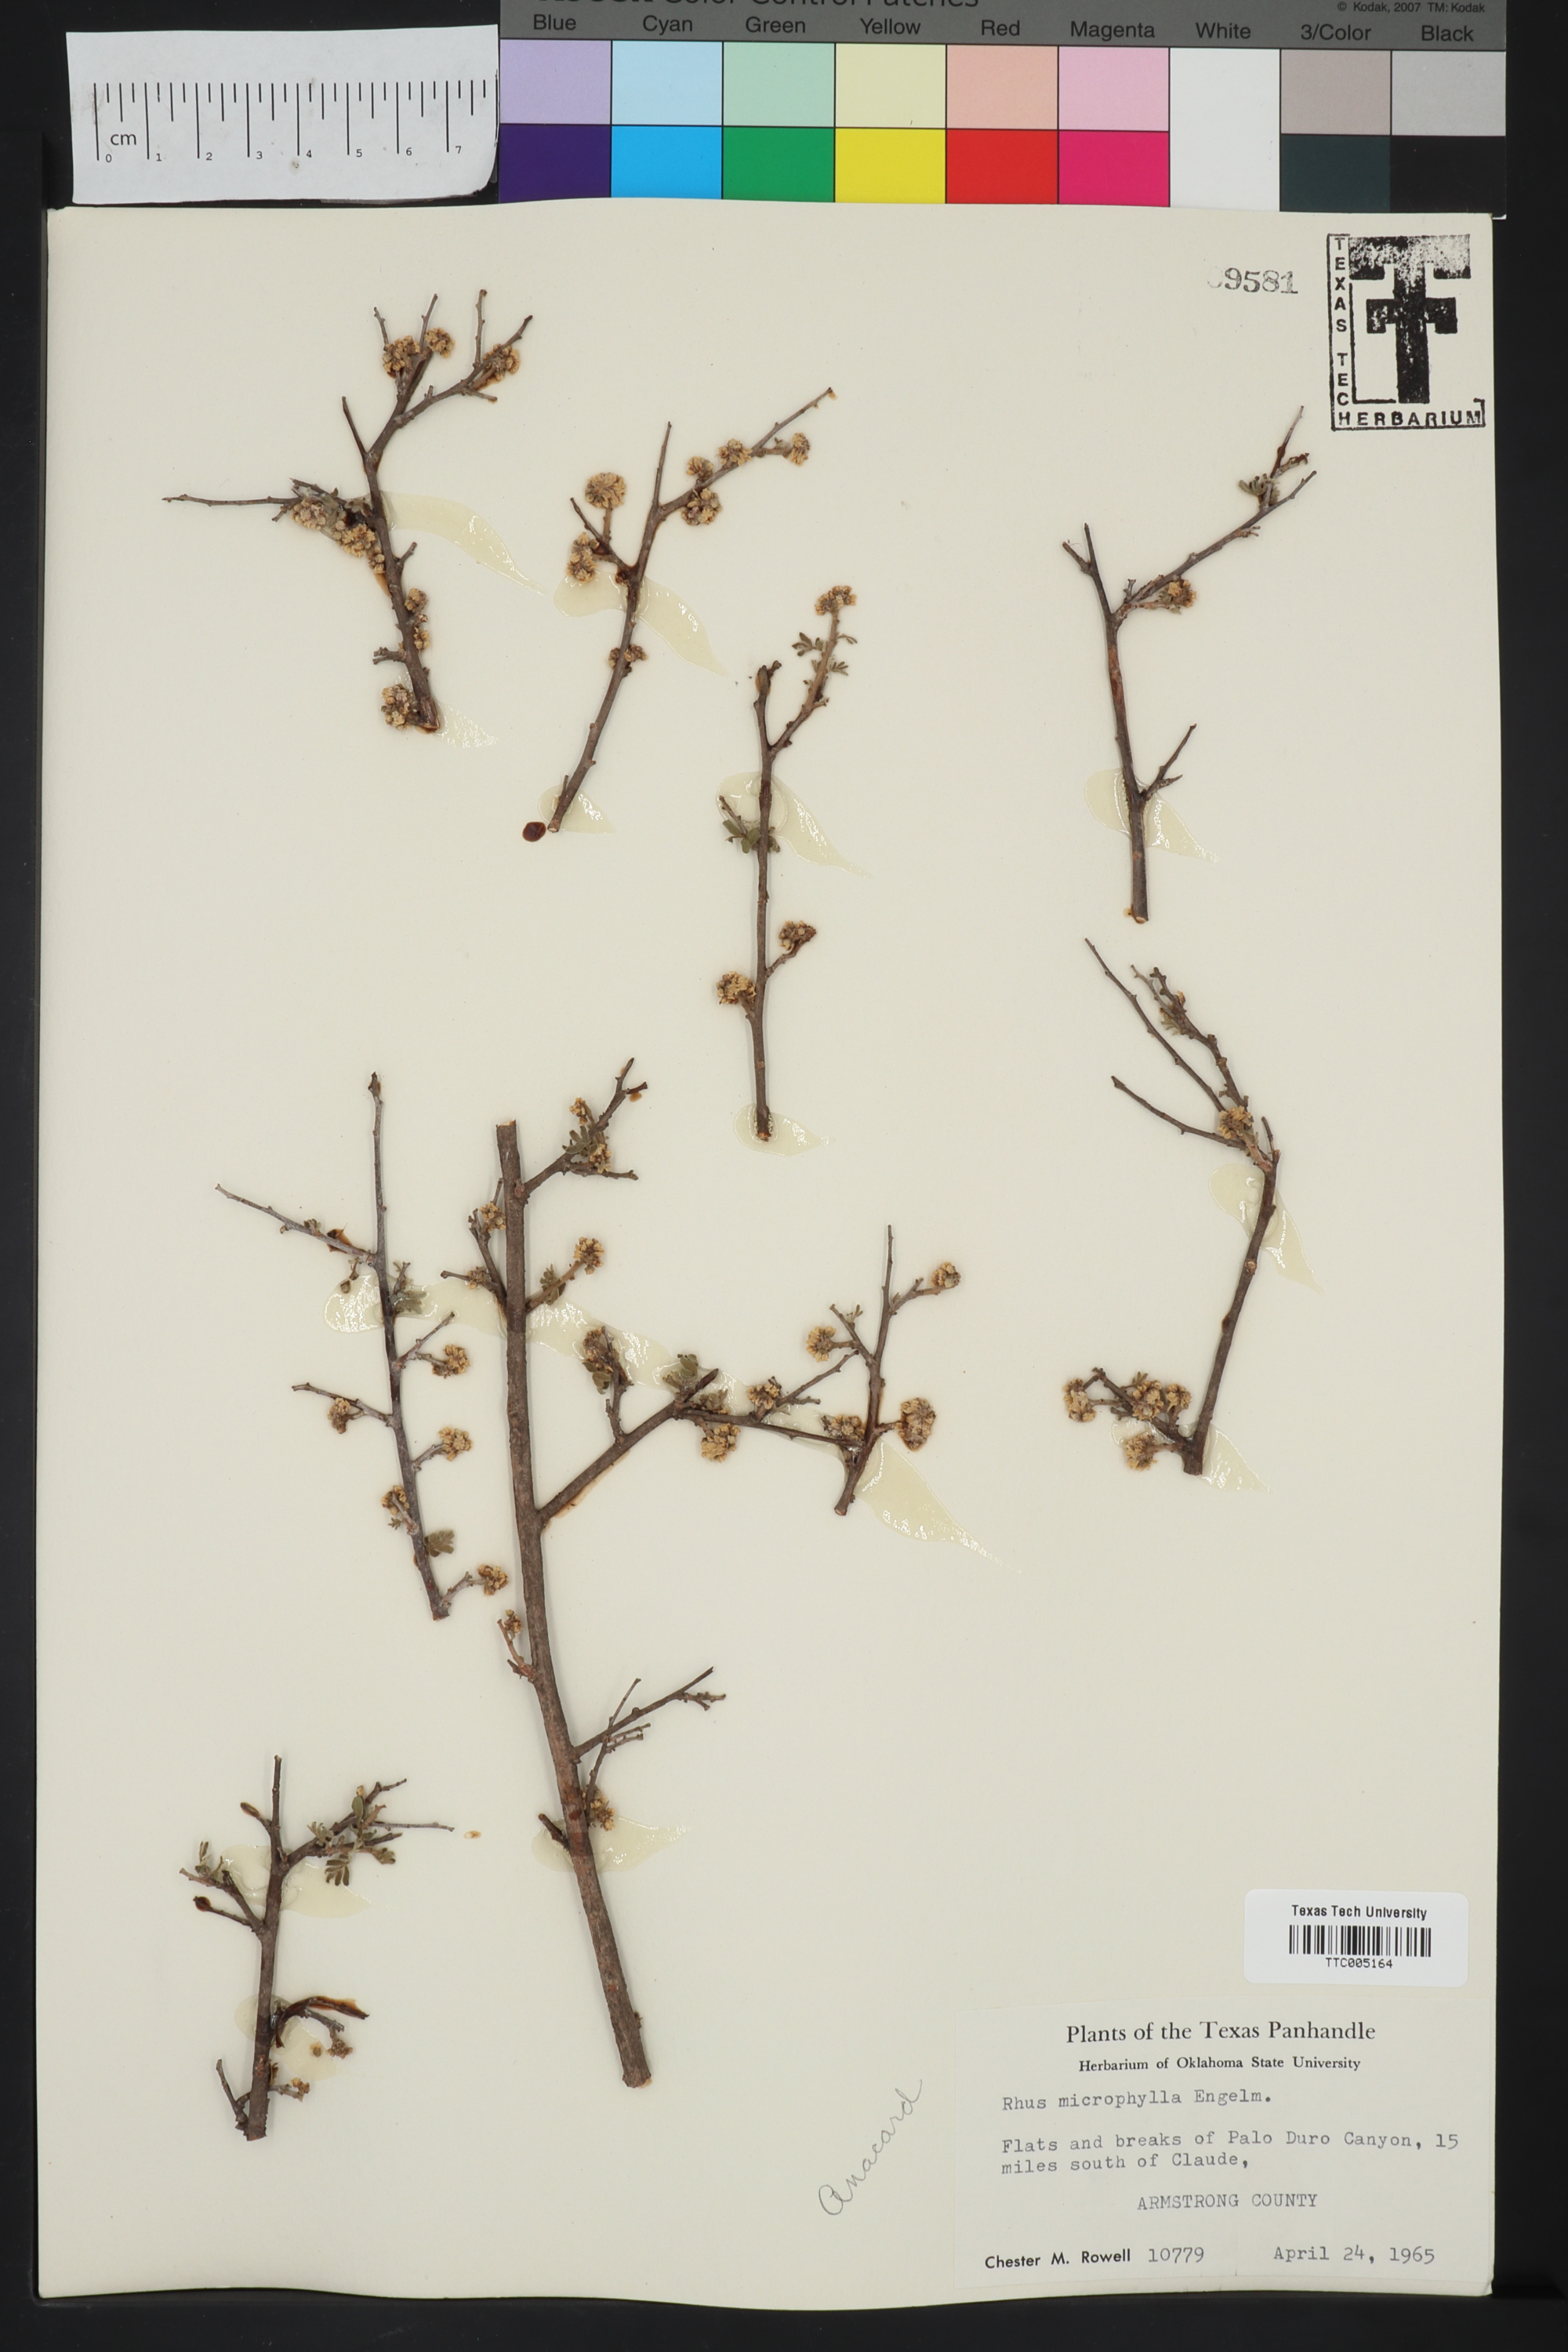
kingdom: Plantae
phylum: Tracheophyta
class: Magnoliopsida
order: Sapindales
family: Anacardiaceae
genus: Rhus
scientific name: Rhus microphylla
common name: Desert sumac
